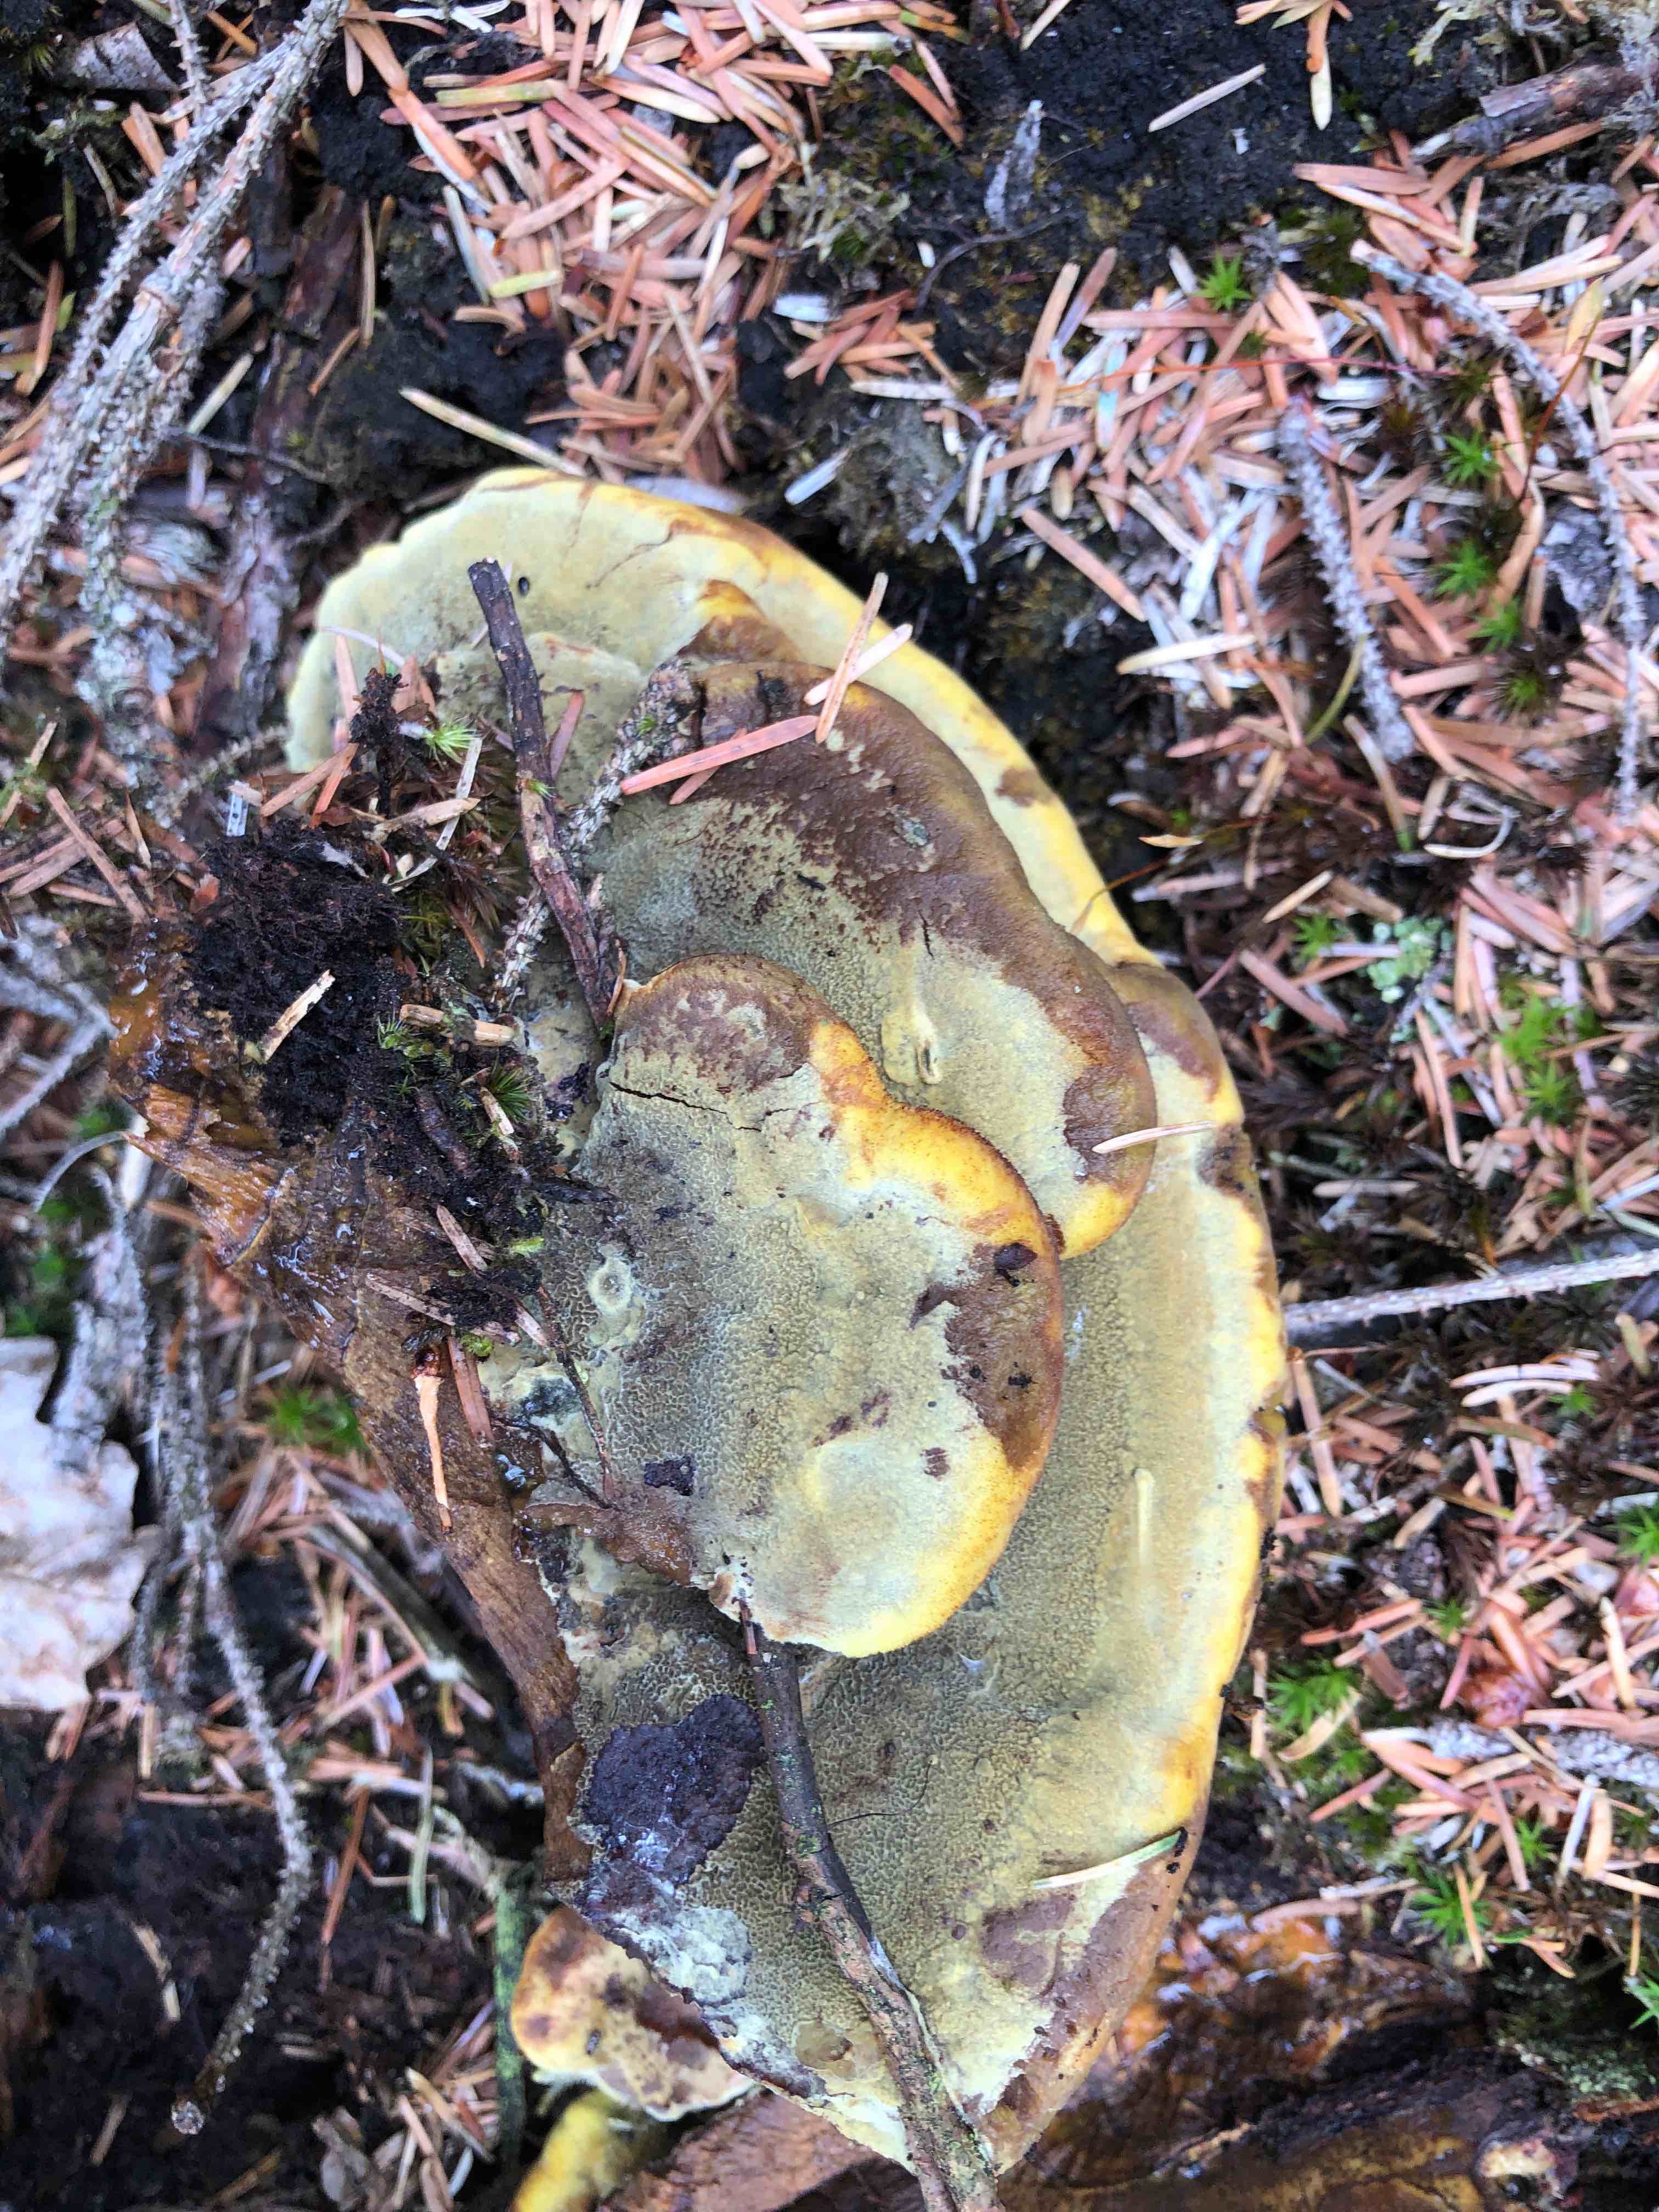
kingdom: Fungi
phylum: Basidiomycota
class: Agaricomycetes
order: Polyporales
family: Laetiporaceae
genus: Phaeolus
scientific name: Phaeolus schweinitzii
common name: brunporesvamp
